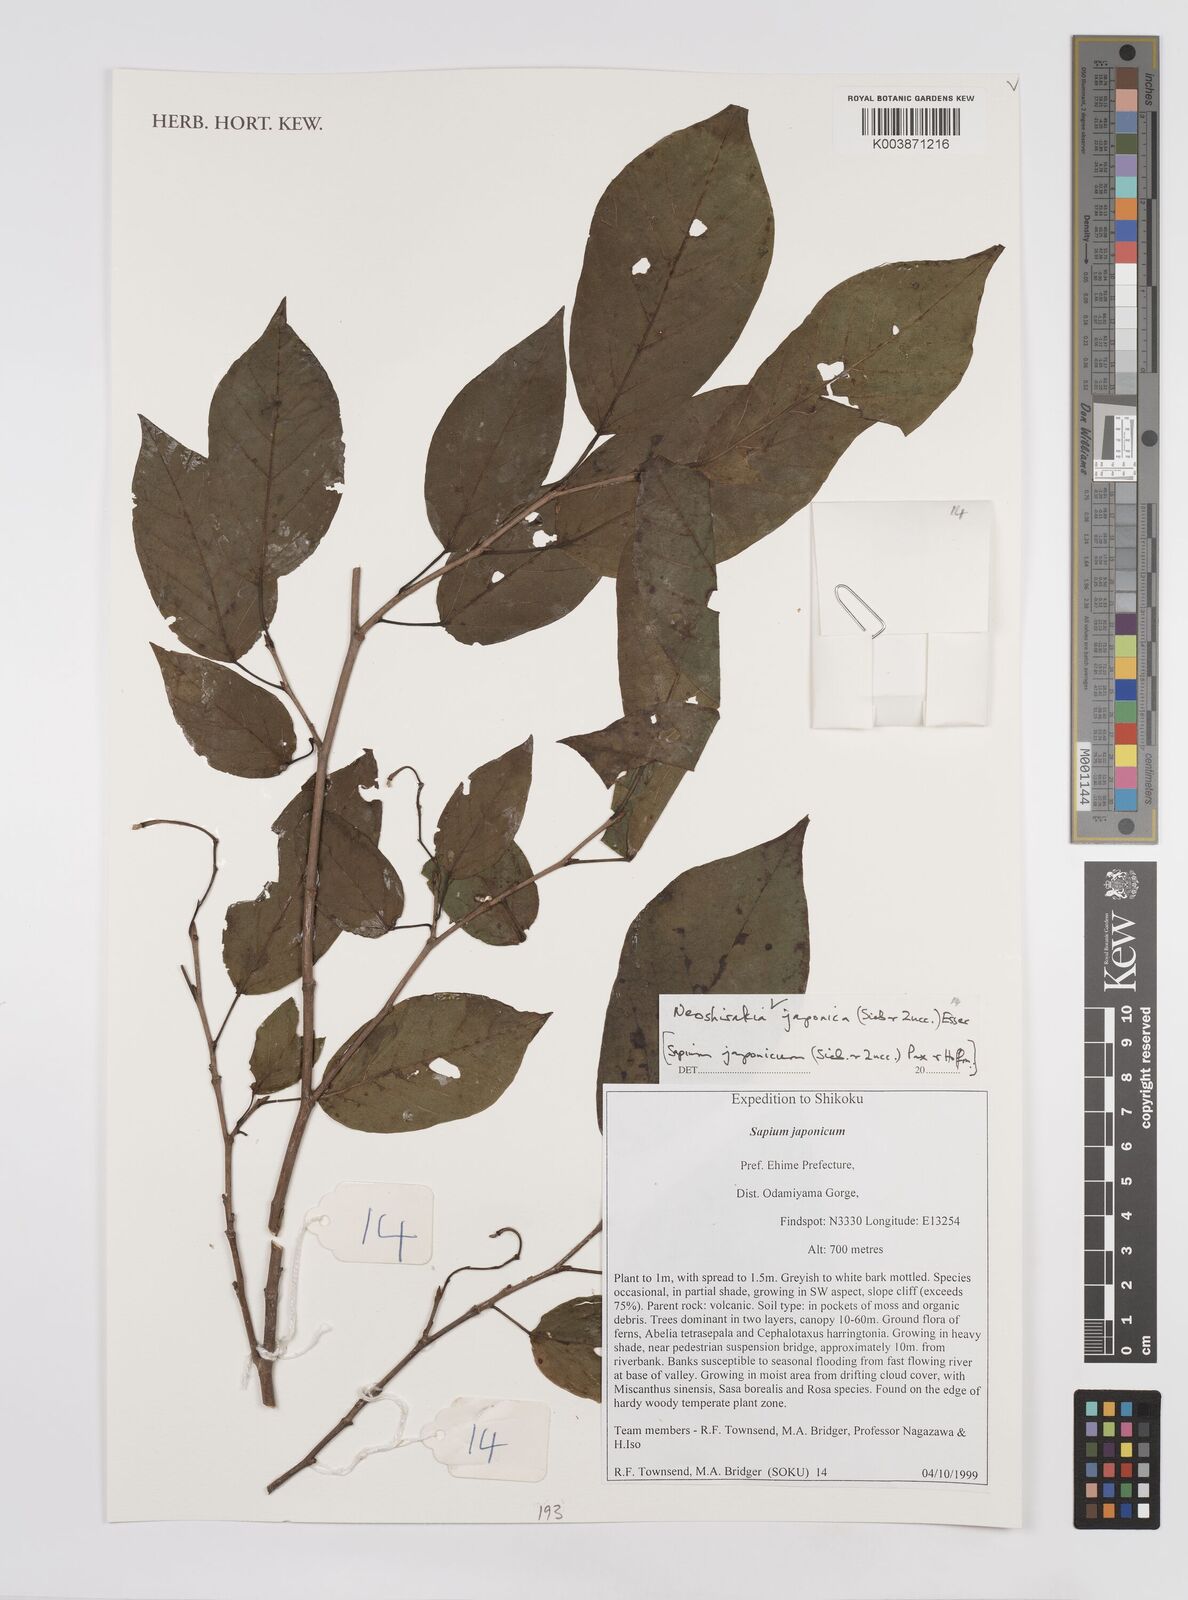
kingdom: Plantae
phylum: Tracheophyta
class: Magnoliopsida
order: Malpighiales
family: Euphorbiaceae
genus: Neoshirakia
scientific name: Neoshirakia japonica
